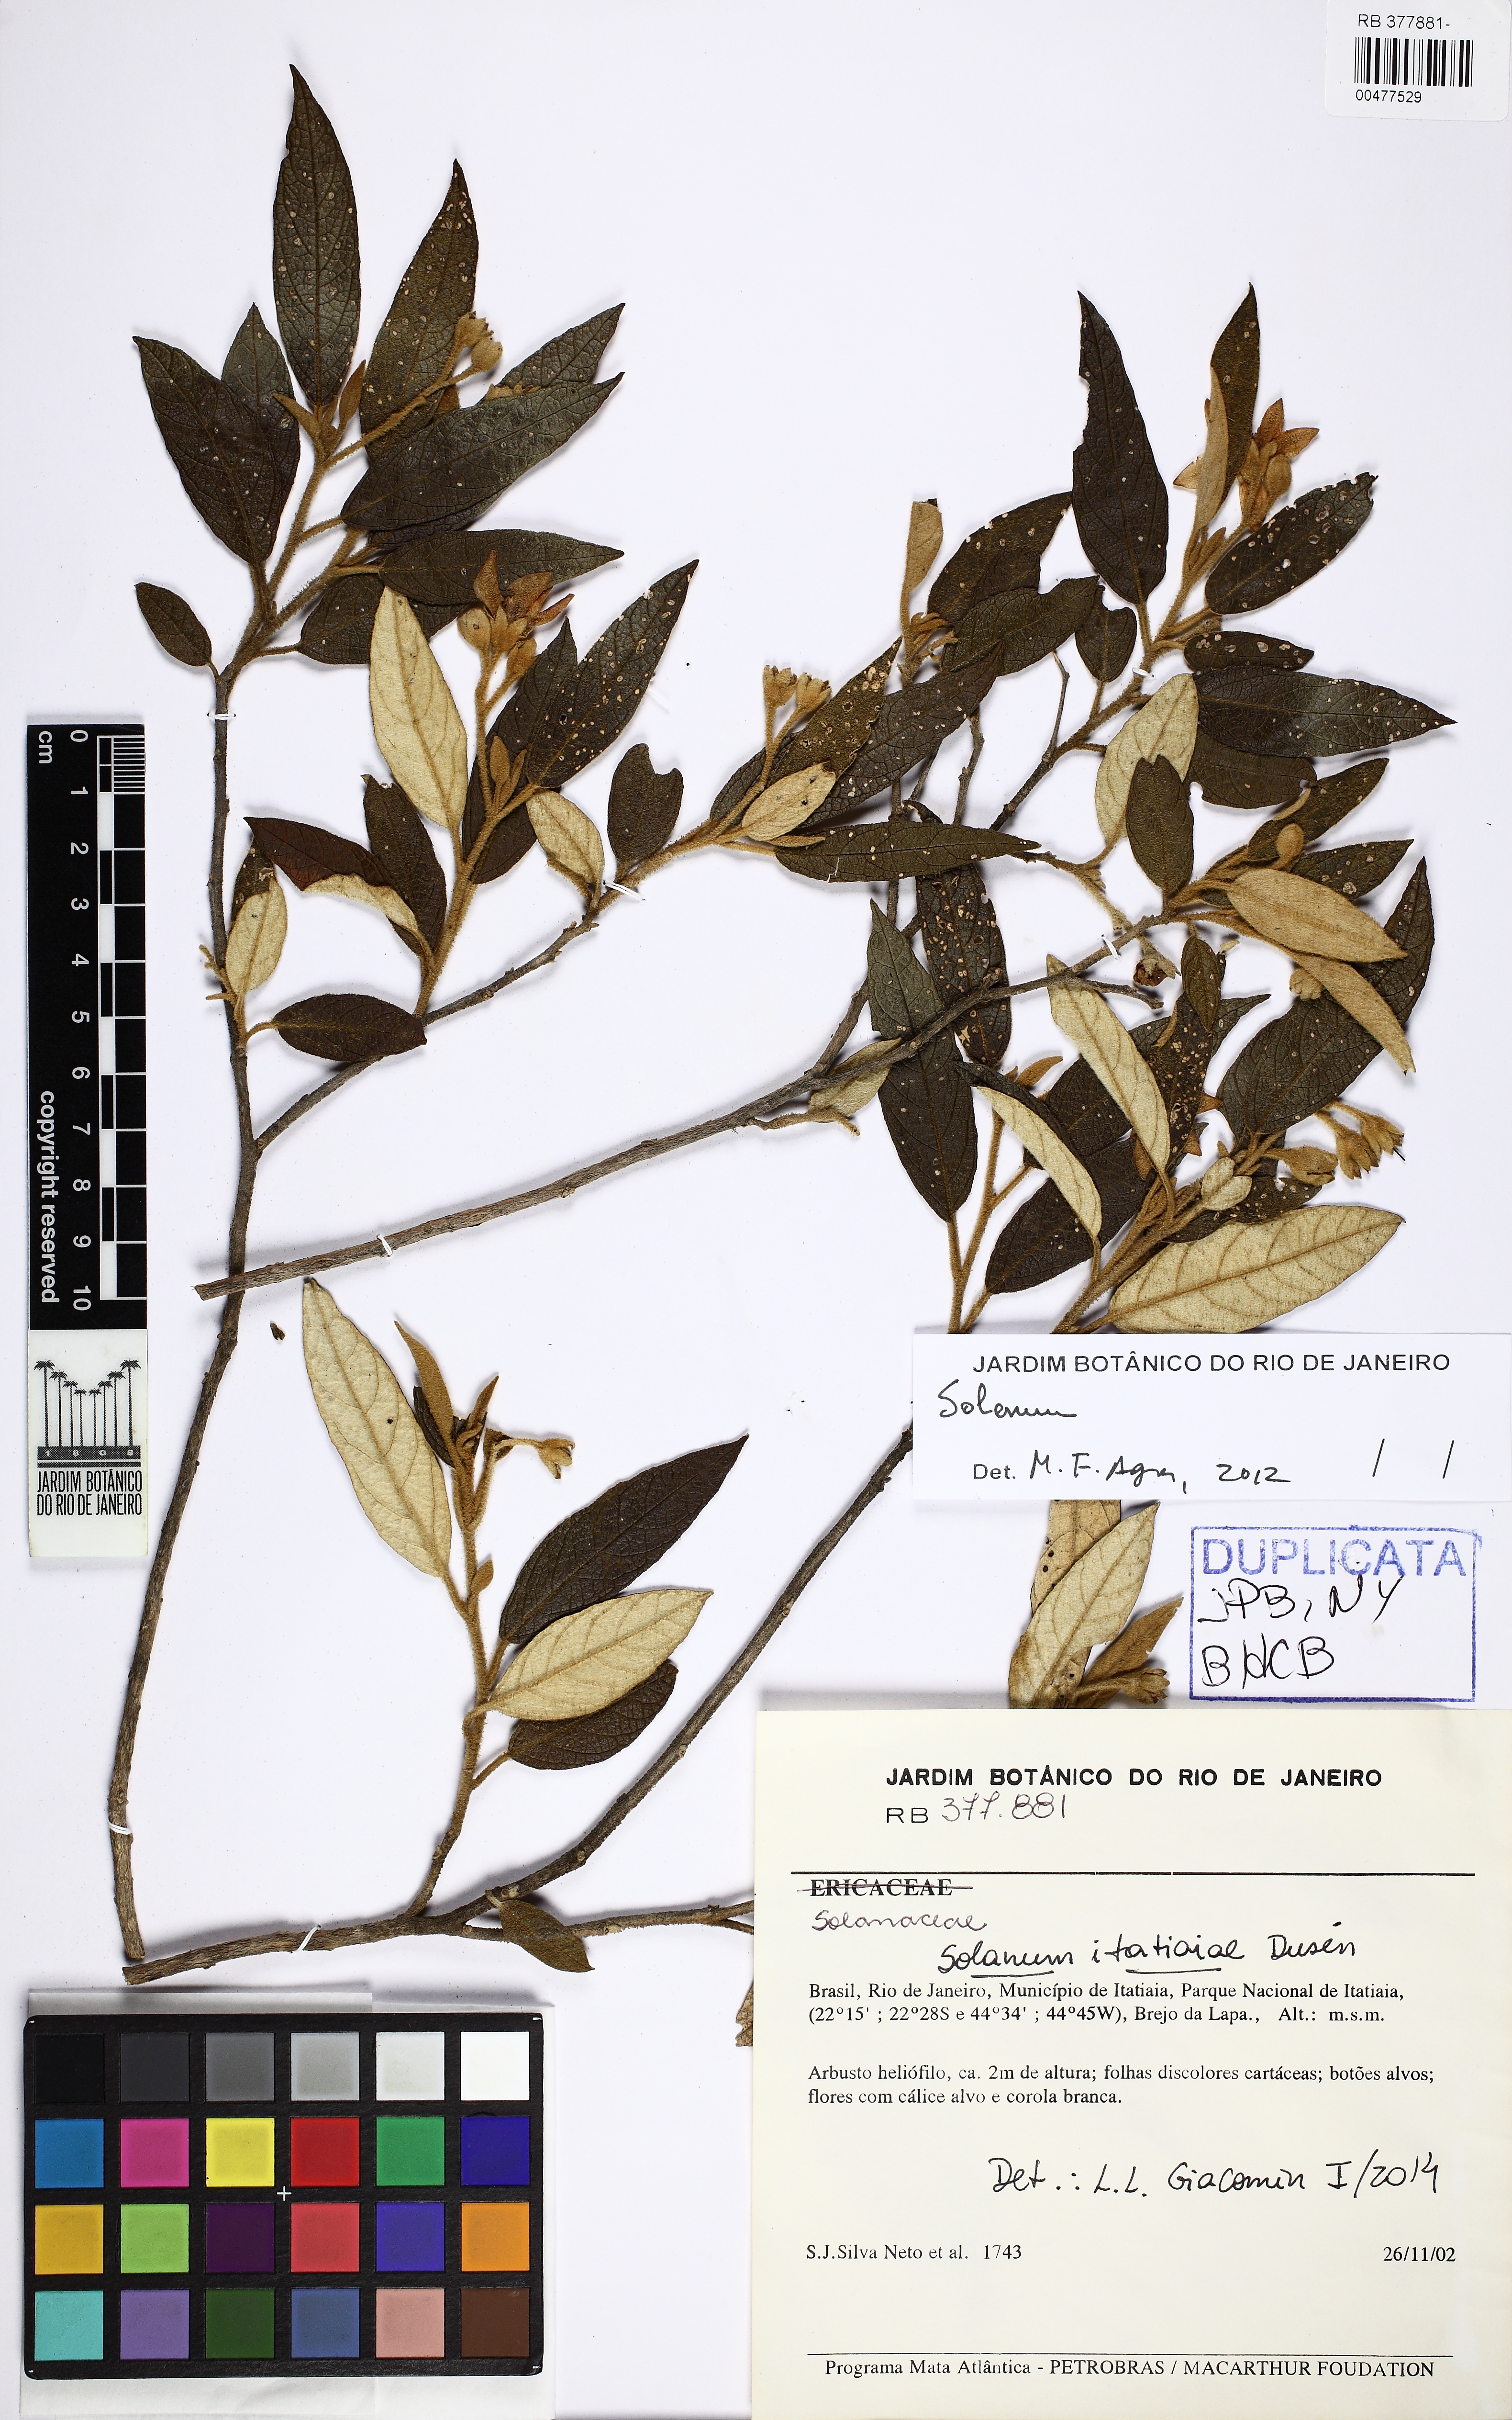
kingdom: Plantae
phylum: Tracheophyta
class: Magnoliopsida
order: Solanales
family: Solanaceae
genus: Solanum
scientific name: Solanum itatiaiae
